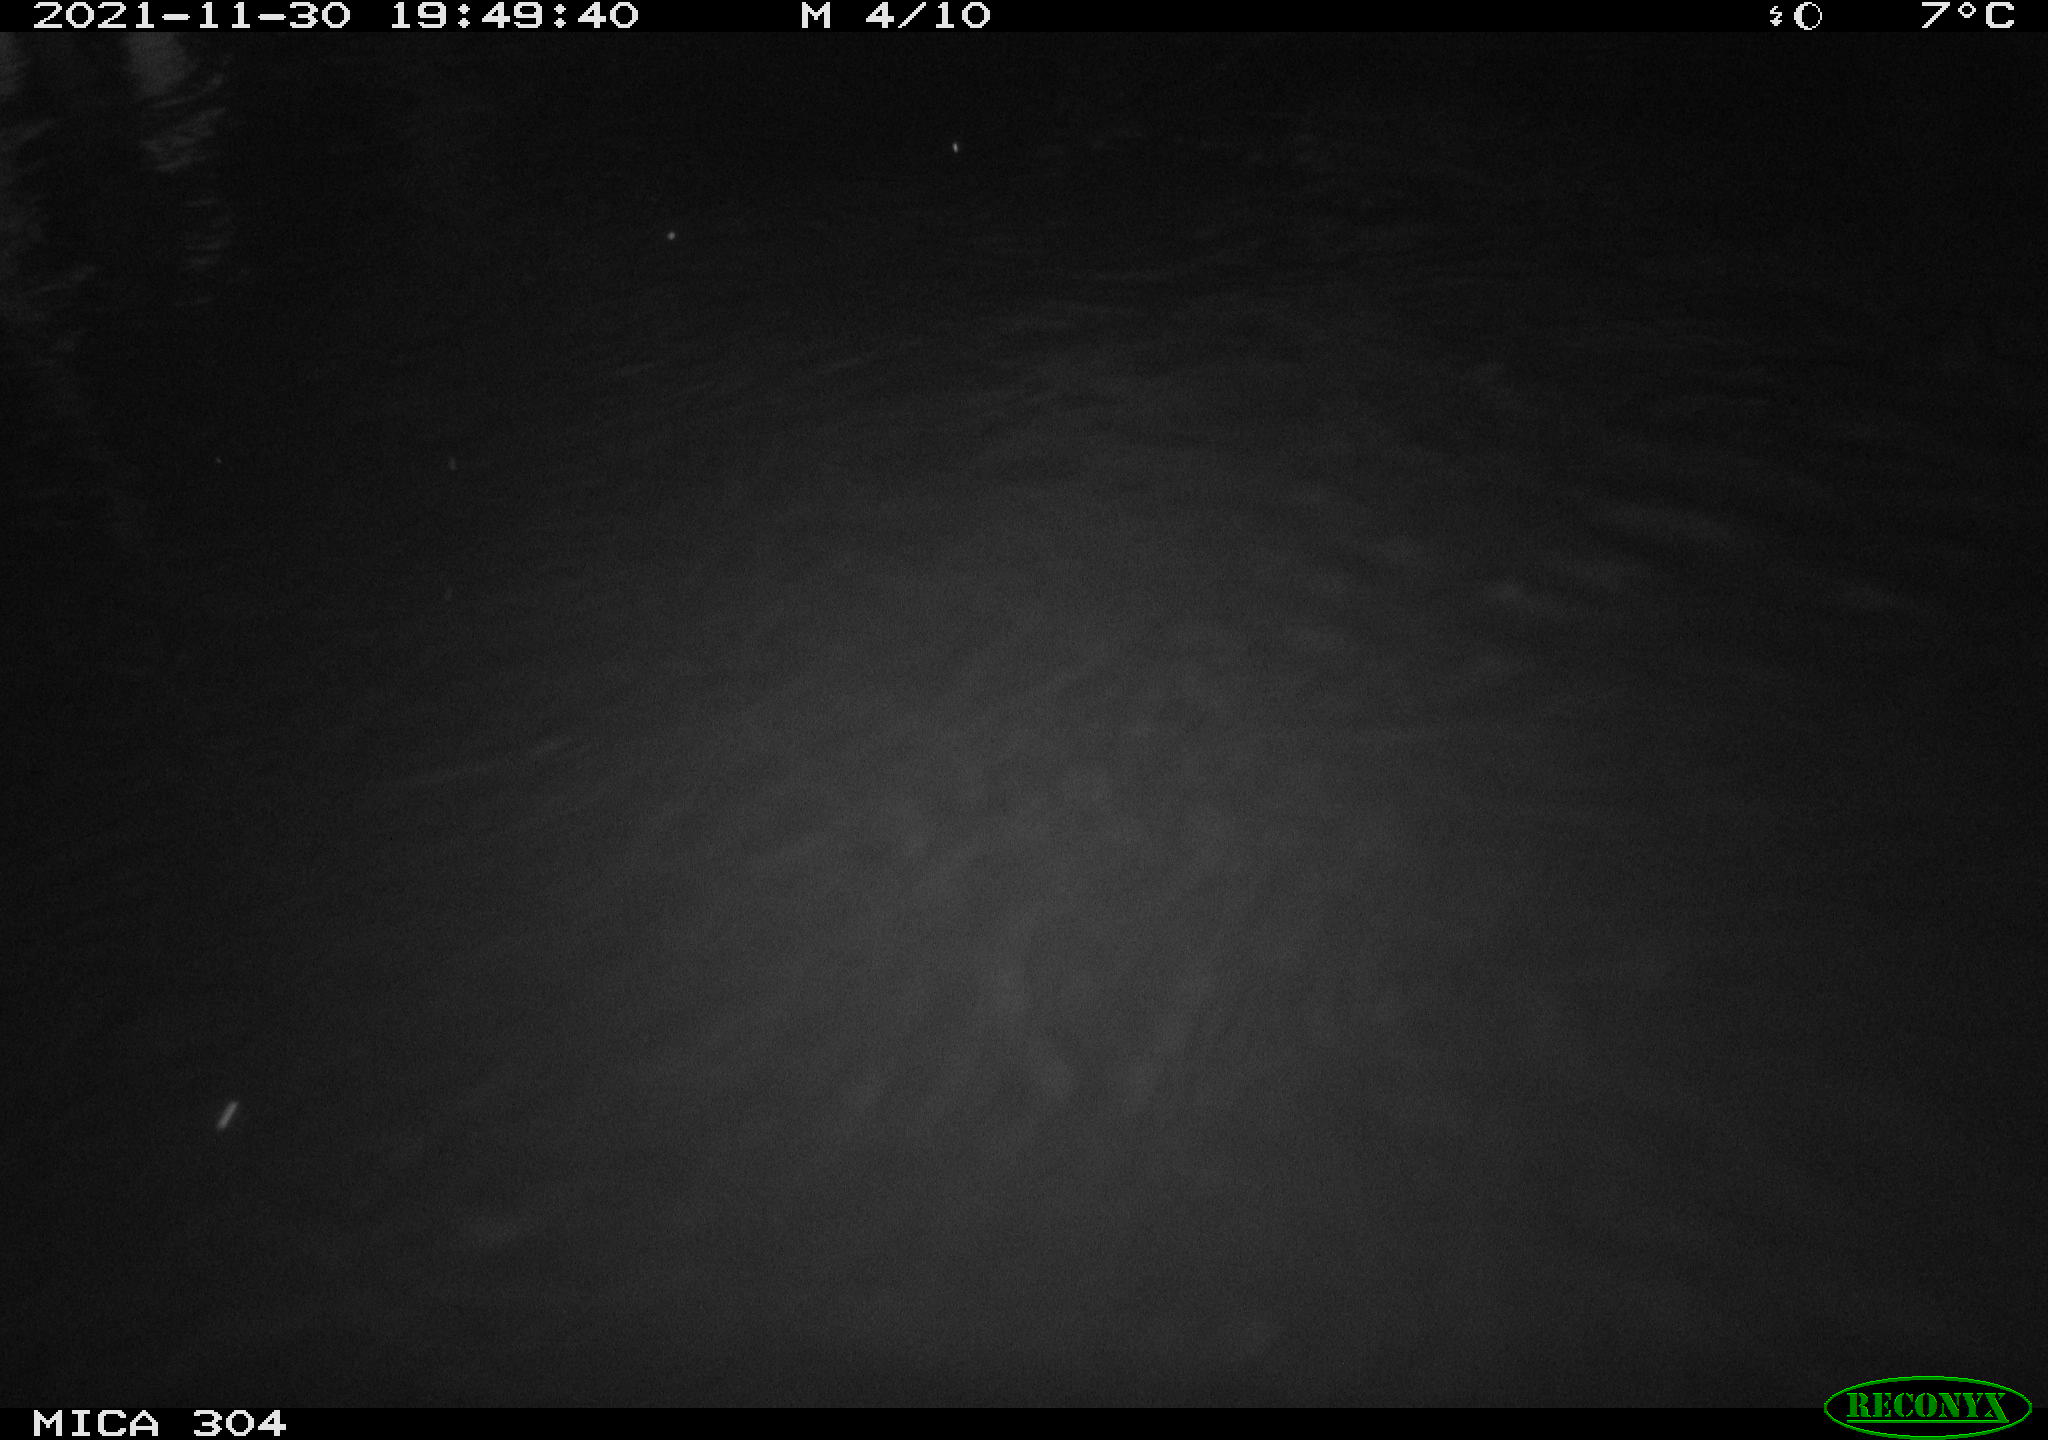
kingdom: Animalia
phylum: Chordata
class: Mammalia
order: Rodentia
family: Muridae
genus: Rattus
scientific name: Rattus norvegicus
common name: Brown rat
